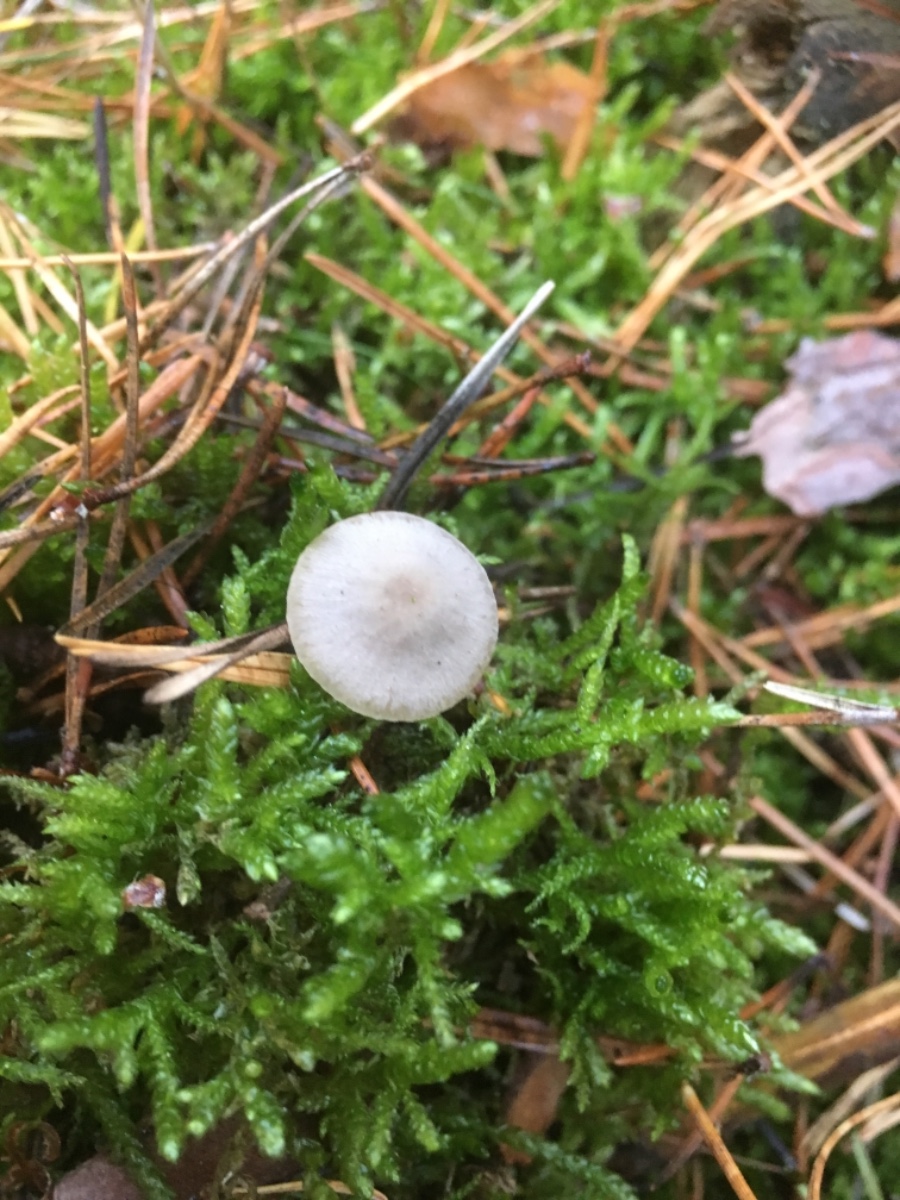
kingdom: Fungi
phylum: Basidiomycota
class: Agaricomycetes
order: Agaricales
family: Mycenaceae
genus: Mycena
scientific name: Mycena cinerella
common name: mel-huesvamp
